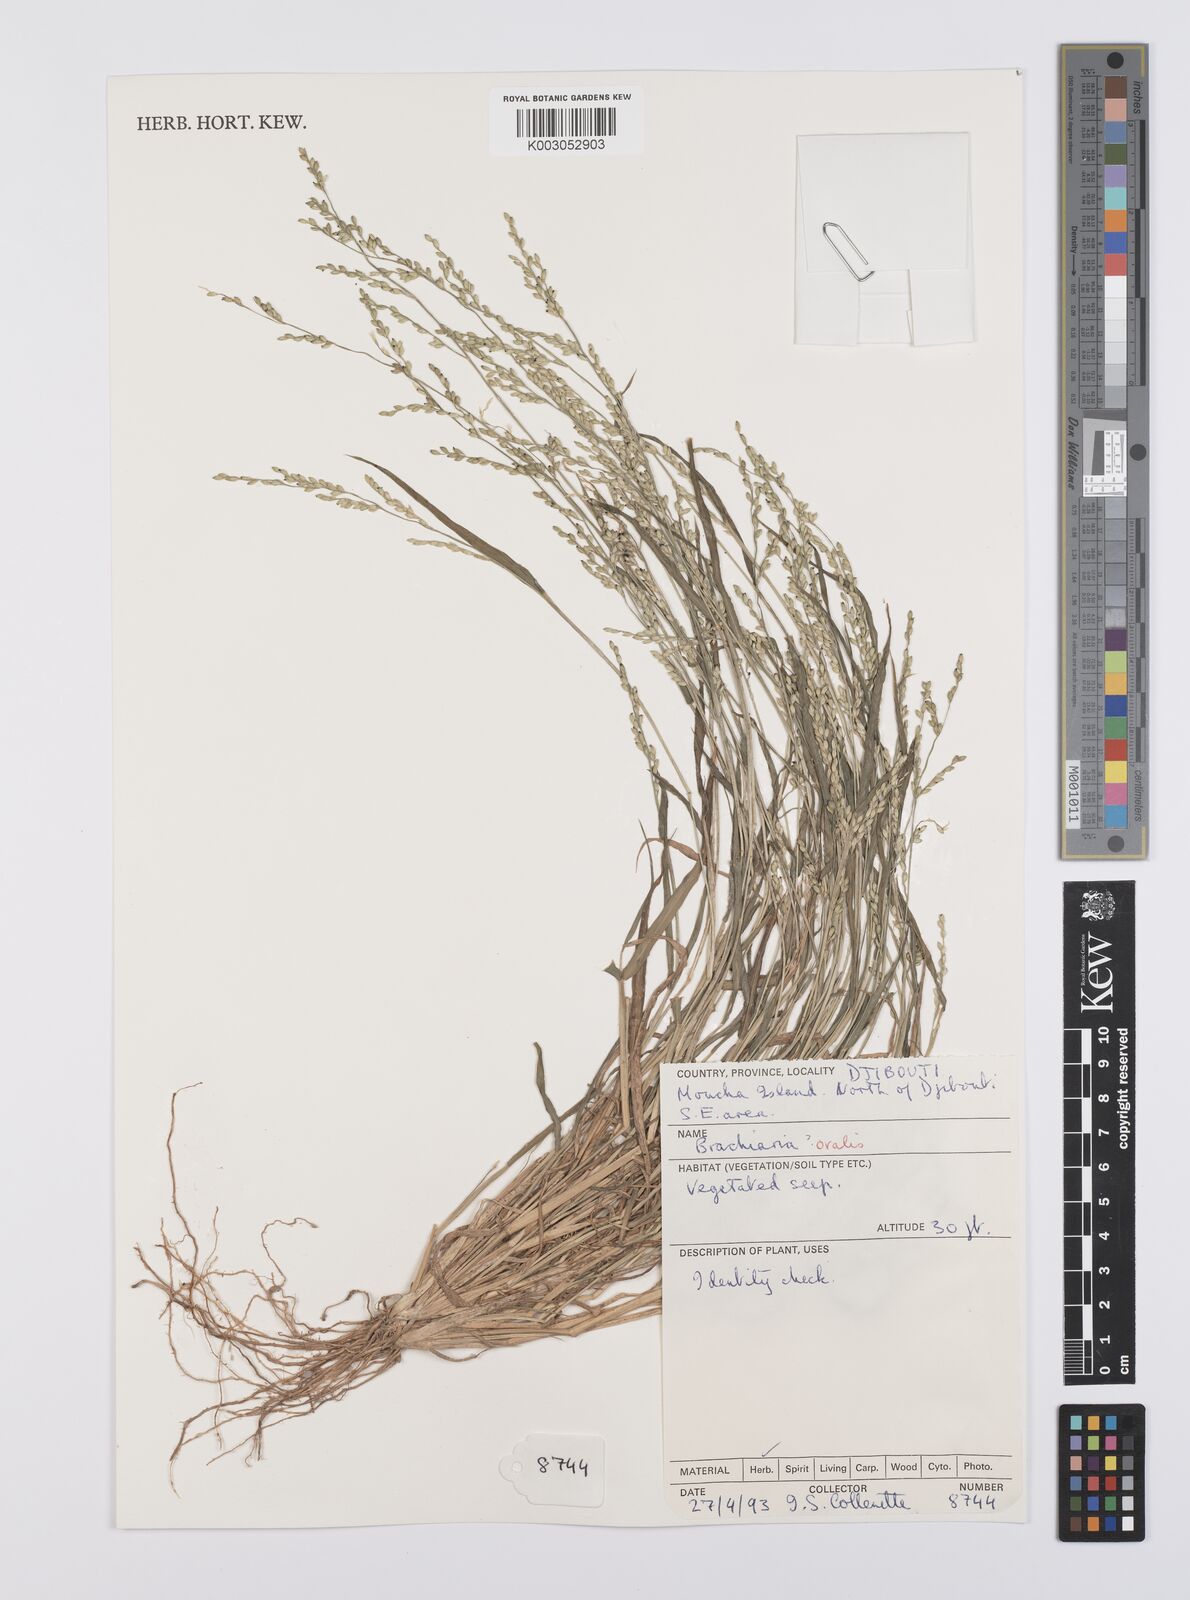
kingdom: Plantae
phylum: Tracheophyta
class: Liliopsida
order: Poales
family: Poaceae
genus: Urochloa
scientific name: Urochloa ovalis
